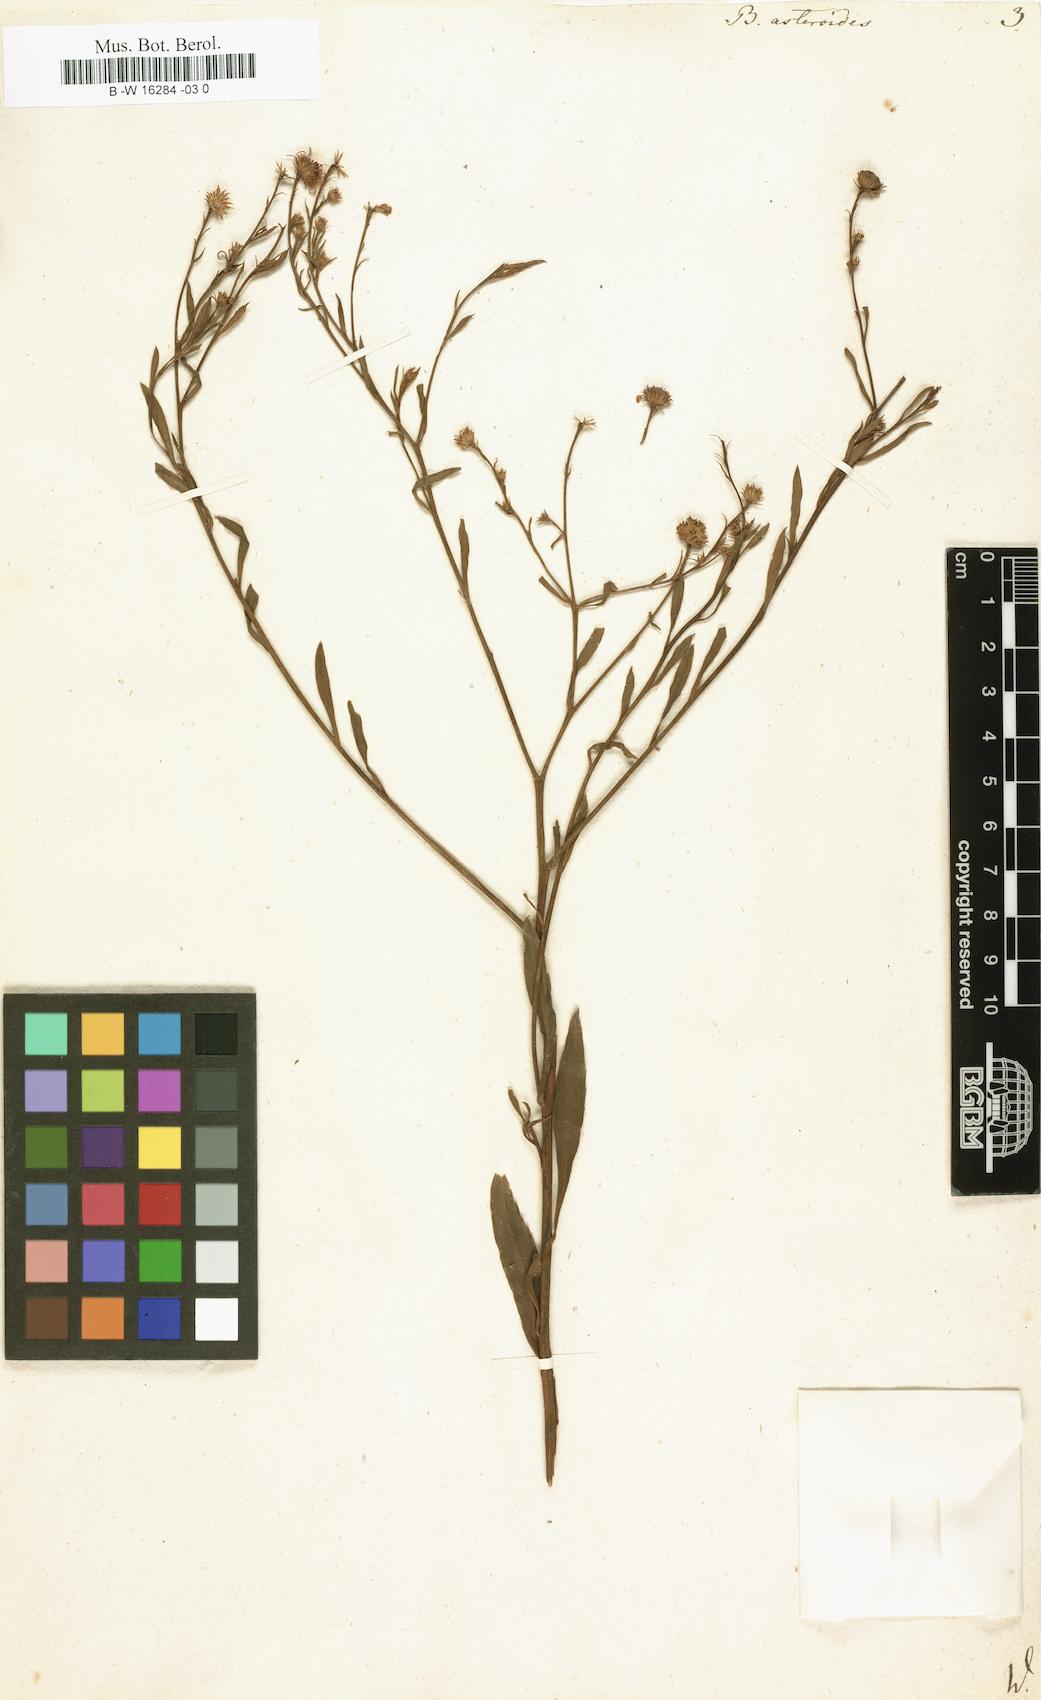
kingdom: Plantae
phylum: Tracheophyta
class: Magnoliopsida
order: Asterales
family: Asteraceae
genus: Boltonia
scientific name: Boltonia asteroides
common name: False chamomile
